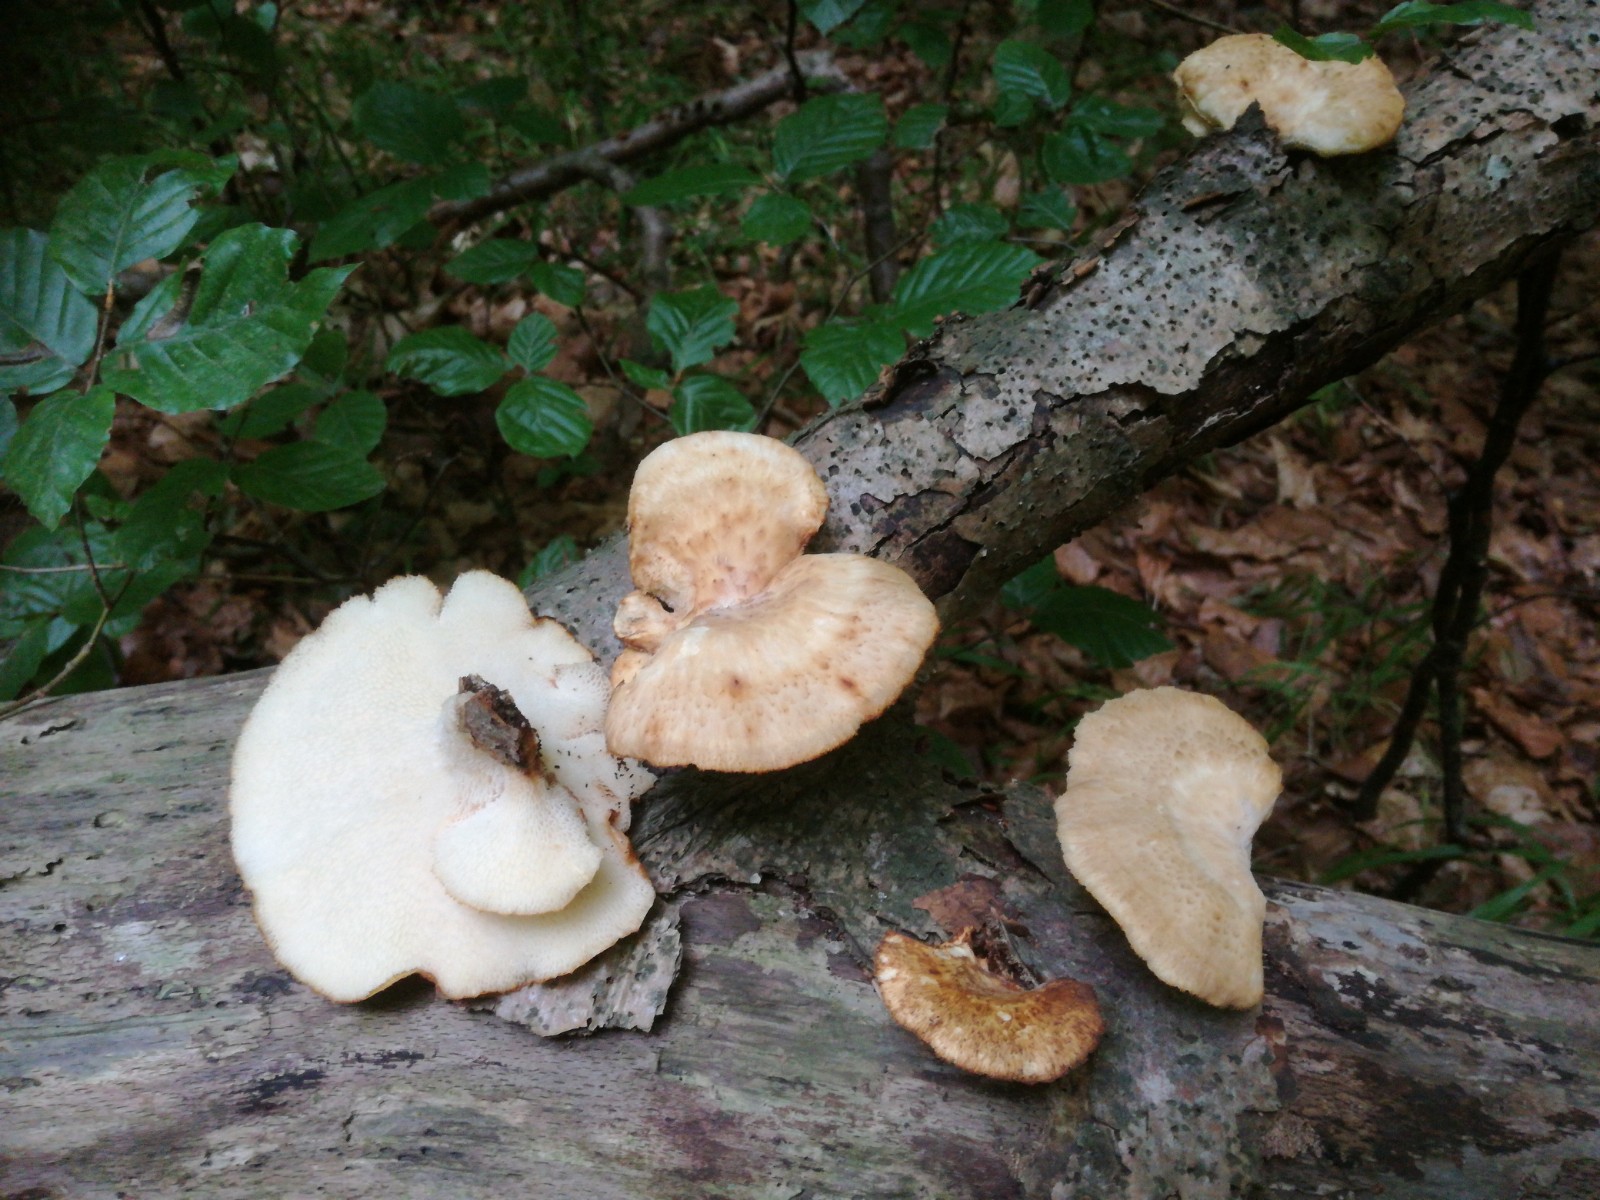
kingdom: Fungi
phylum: Basidiomycota
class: Agaricomycetes
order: Polyporales
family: Polyporaceae
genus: Polyporus
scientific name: Polyporus tuberaster
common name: knoldet stilkporesvamp
